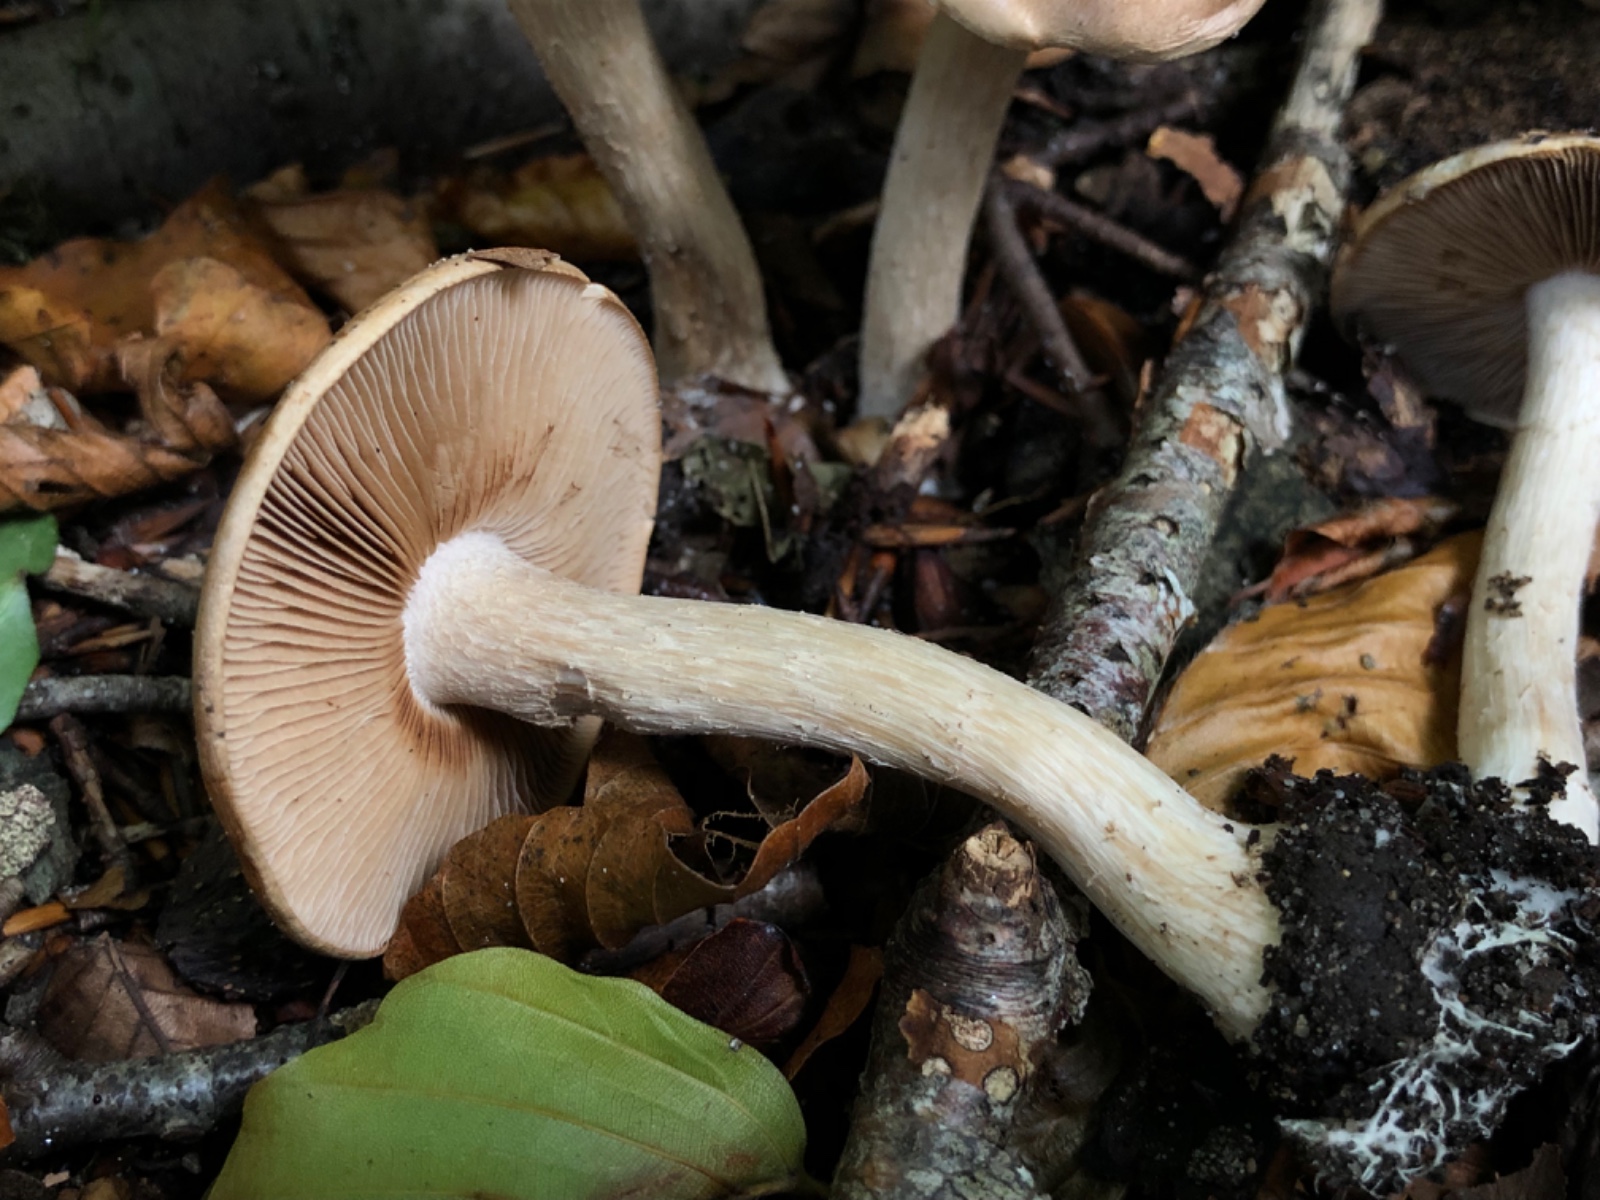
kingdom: Fungi
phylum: Basidiomycota
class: Agaricomycetes
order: Agaricales
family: Hymenogastraceae
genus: Hebeloma
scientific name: Hebeloma sinapizans
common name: ræddike-tåreblad
